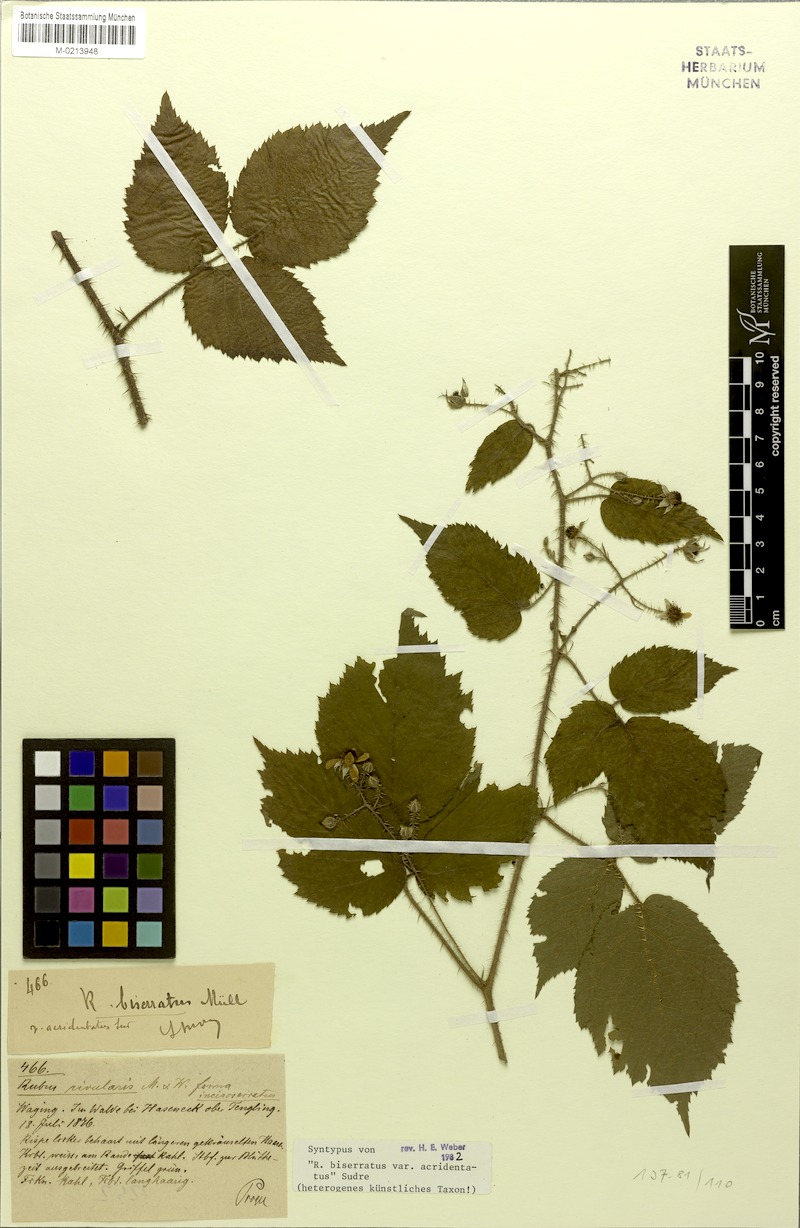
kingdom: Plantae
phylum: Tracheophyta
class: Magnoliopsida
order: Rosales
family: Rosaceae
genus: Rubus
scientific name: Rubus biserratus
